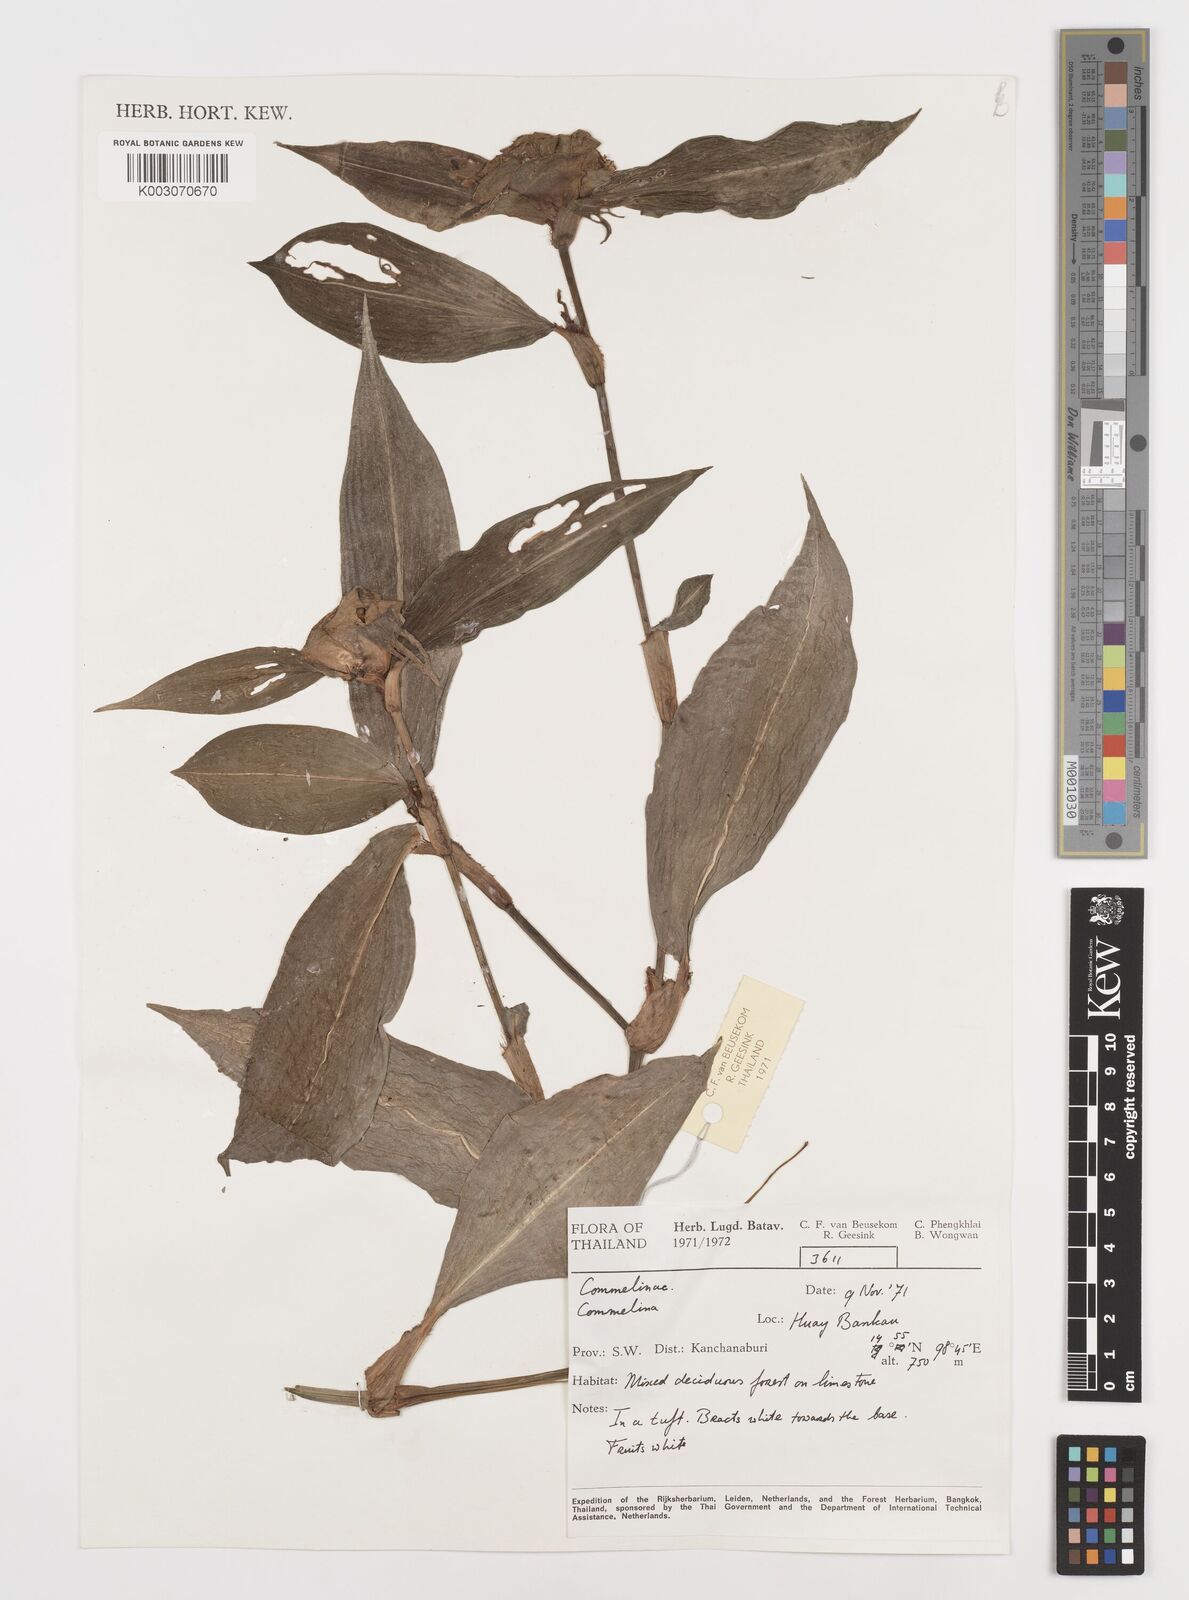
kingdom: Plantae
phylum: Tracheophyta
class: Liliopsida
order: Commelinales
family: Commelinaceae
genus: Commelina
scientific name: Commelina
